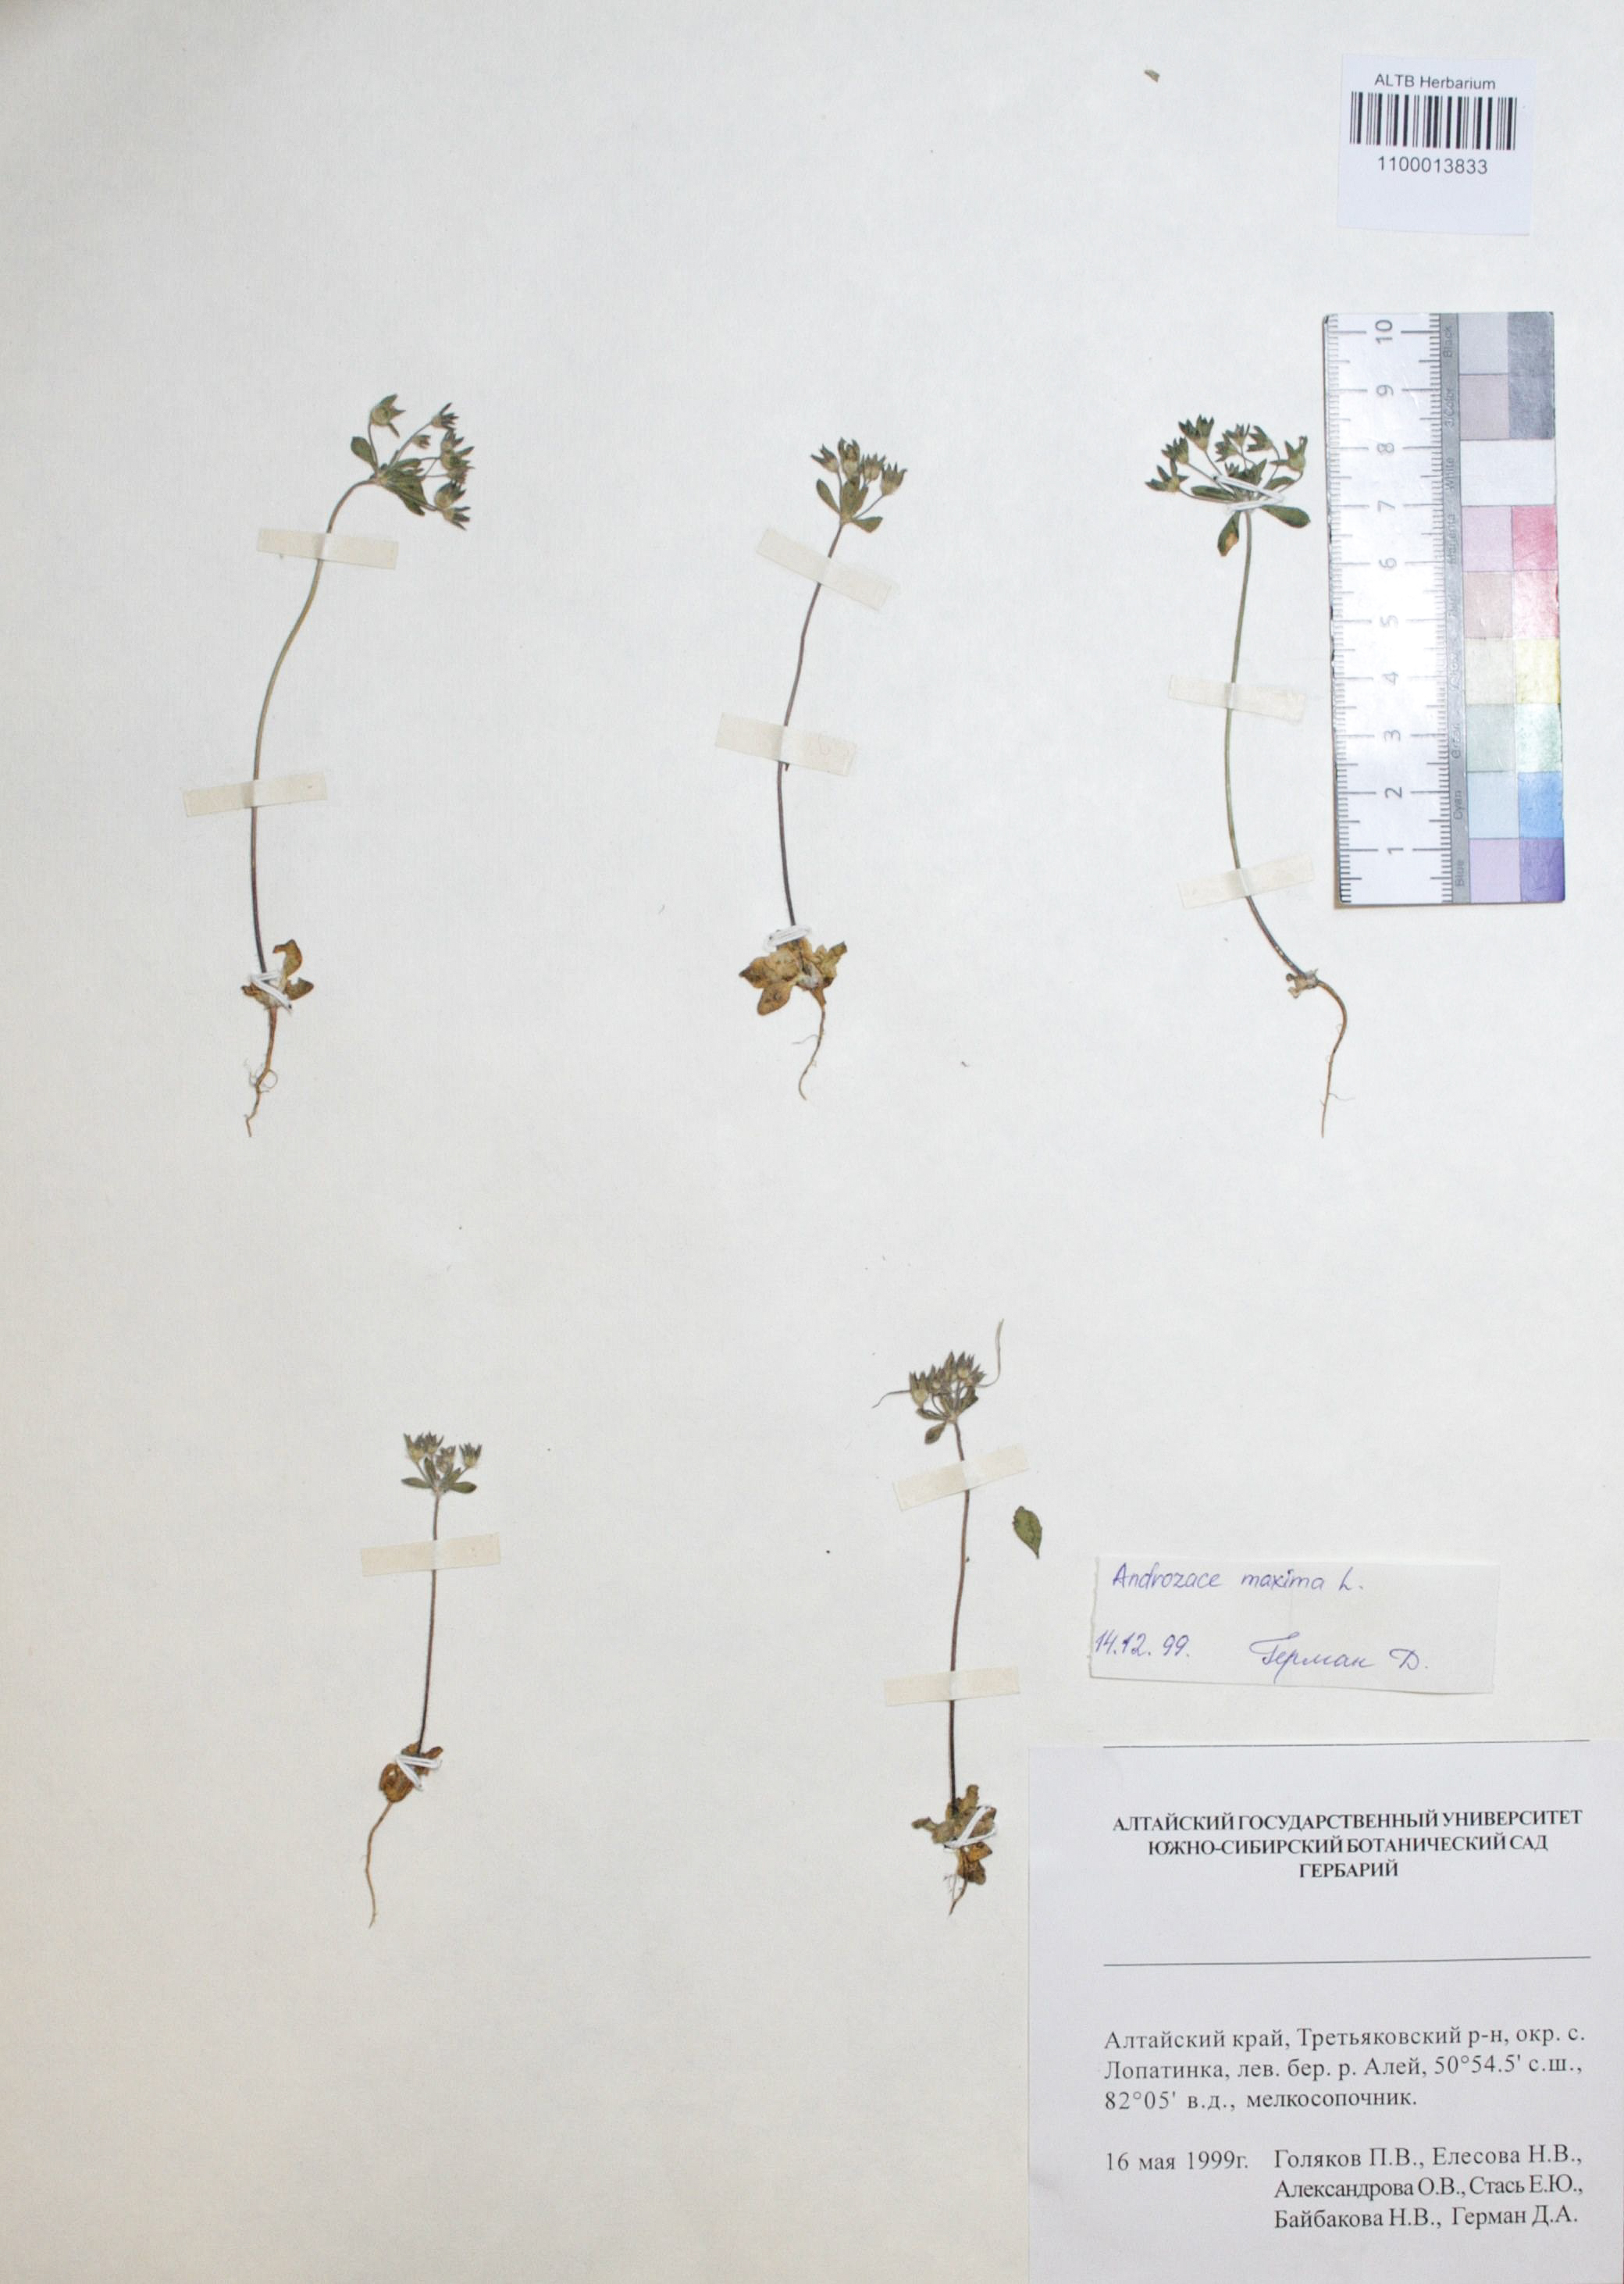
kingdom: Plantae
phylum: Tracheophyta
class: Magnoliopsida
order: Ericales
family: Primulaceae
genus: Androsace
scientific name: Androsace maxima
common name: Annual androsace
